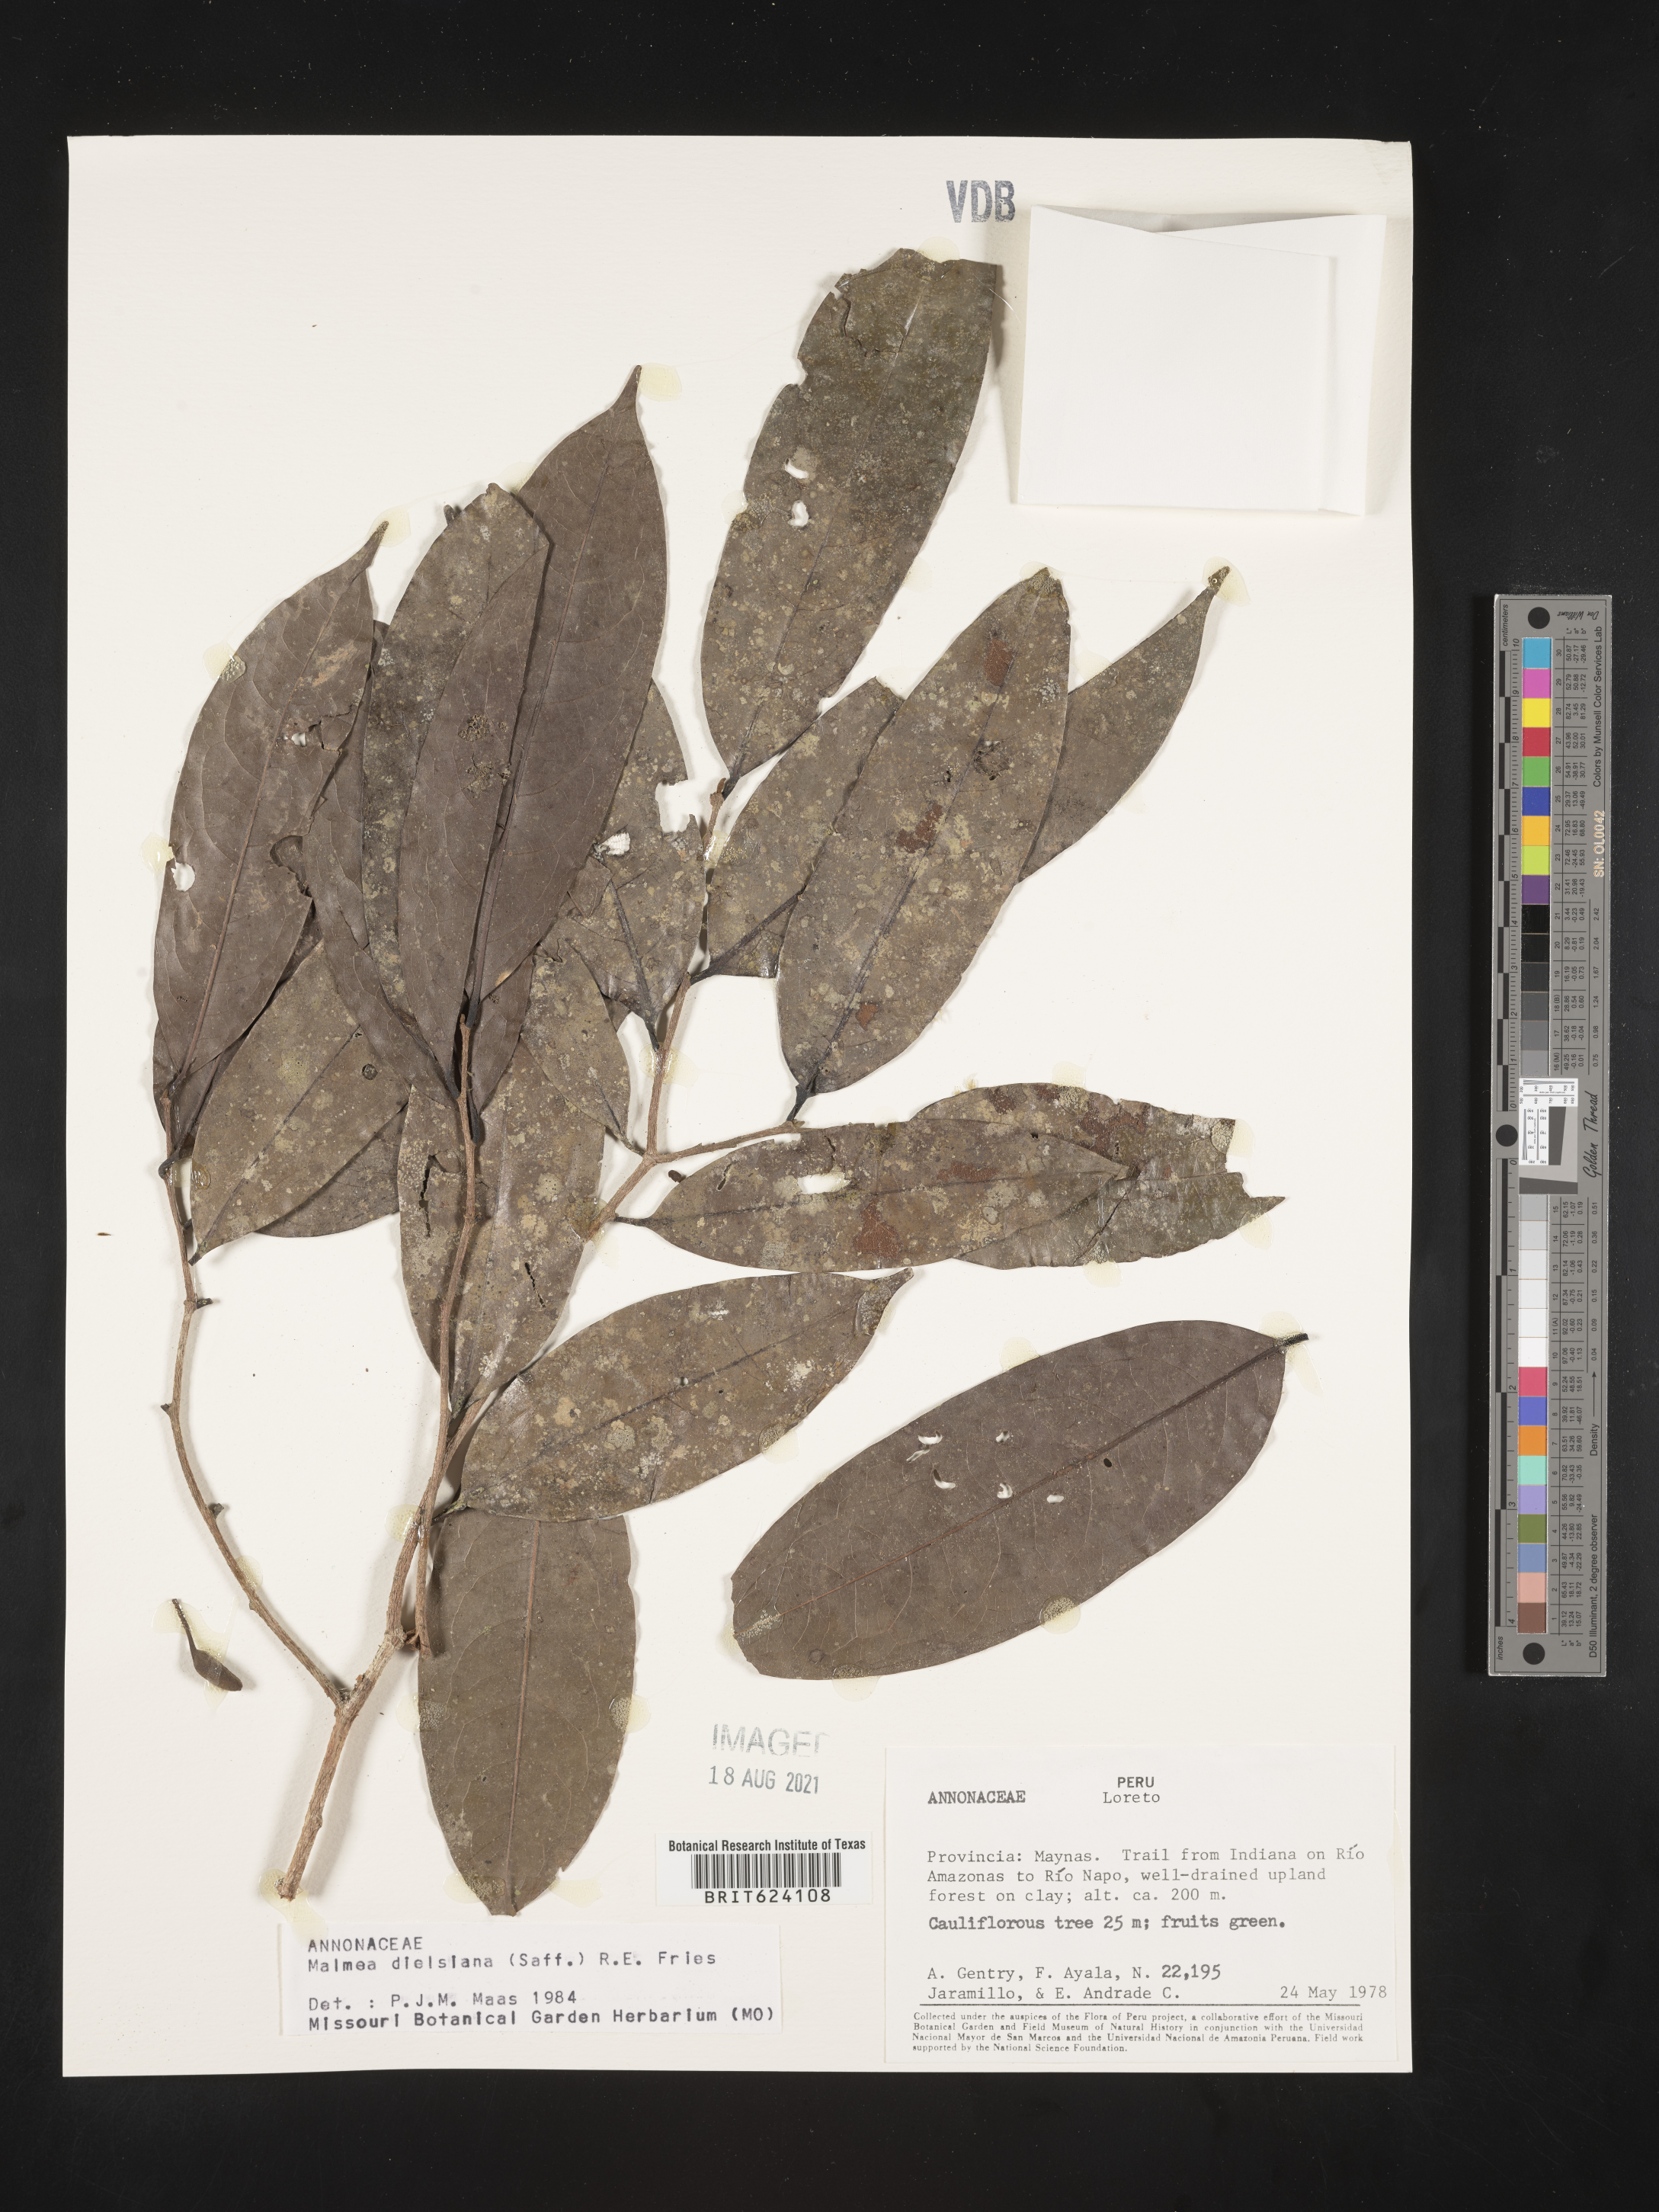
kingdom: Plantae
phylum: Tracheophyta
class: Magnoliopsida
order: Magnoliales
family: Annonaceae
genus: Malmea
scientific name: Malmea dielsiana
